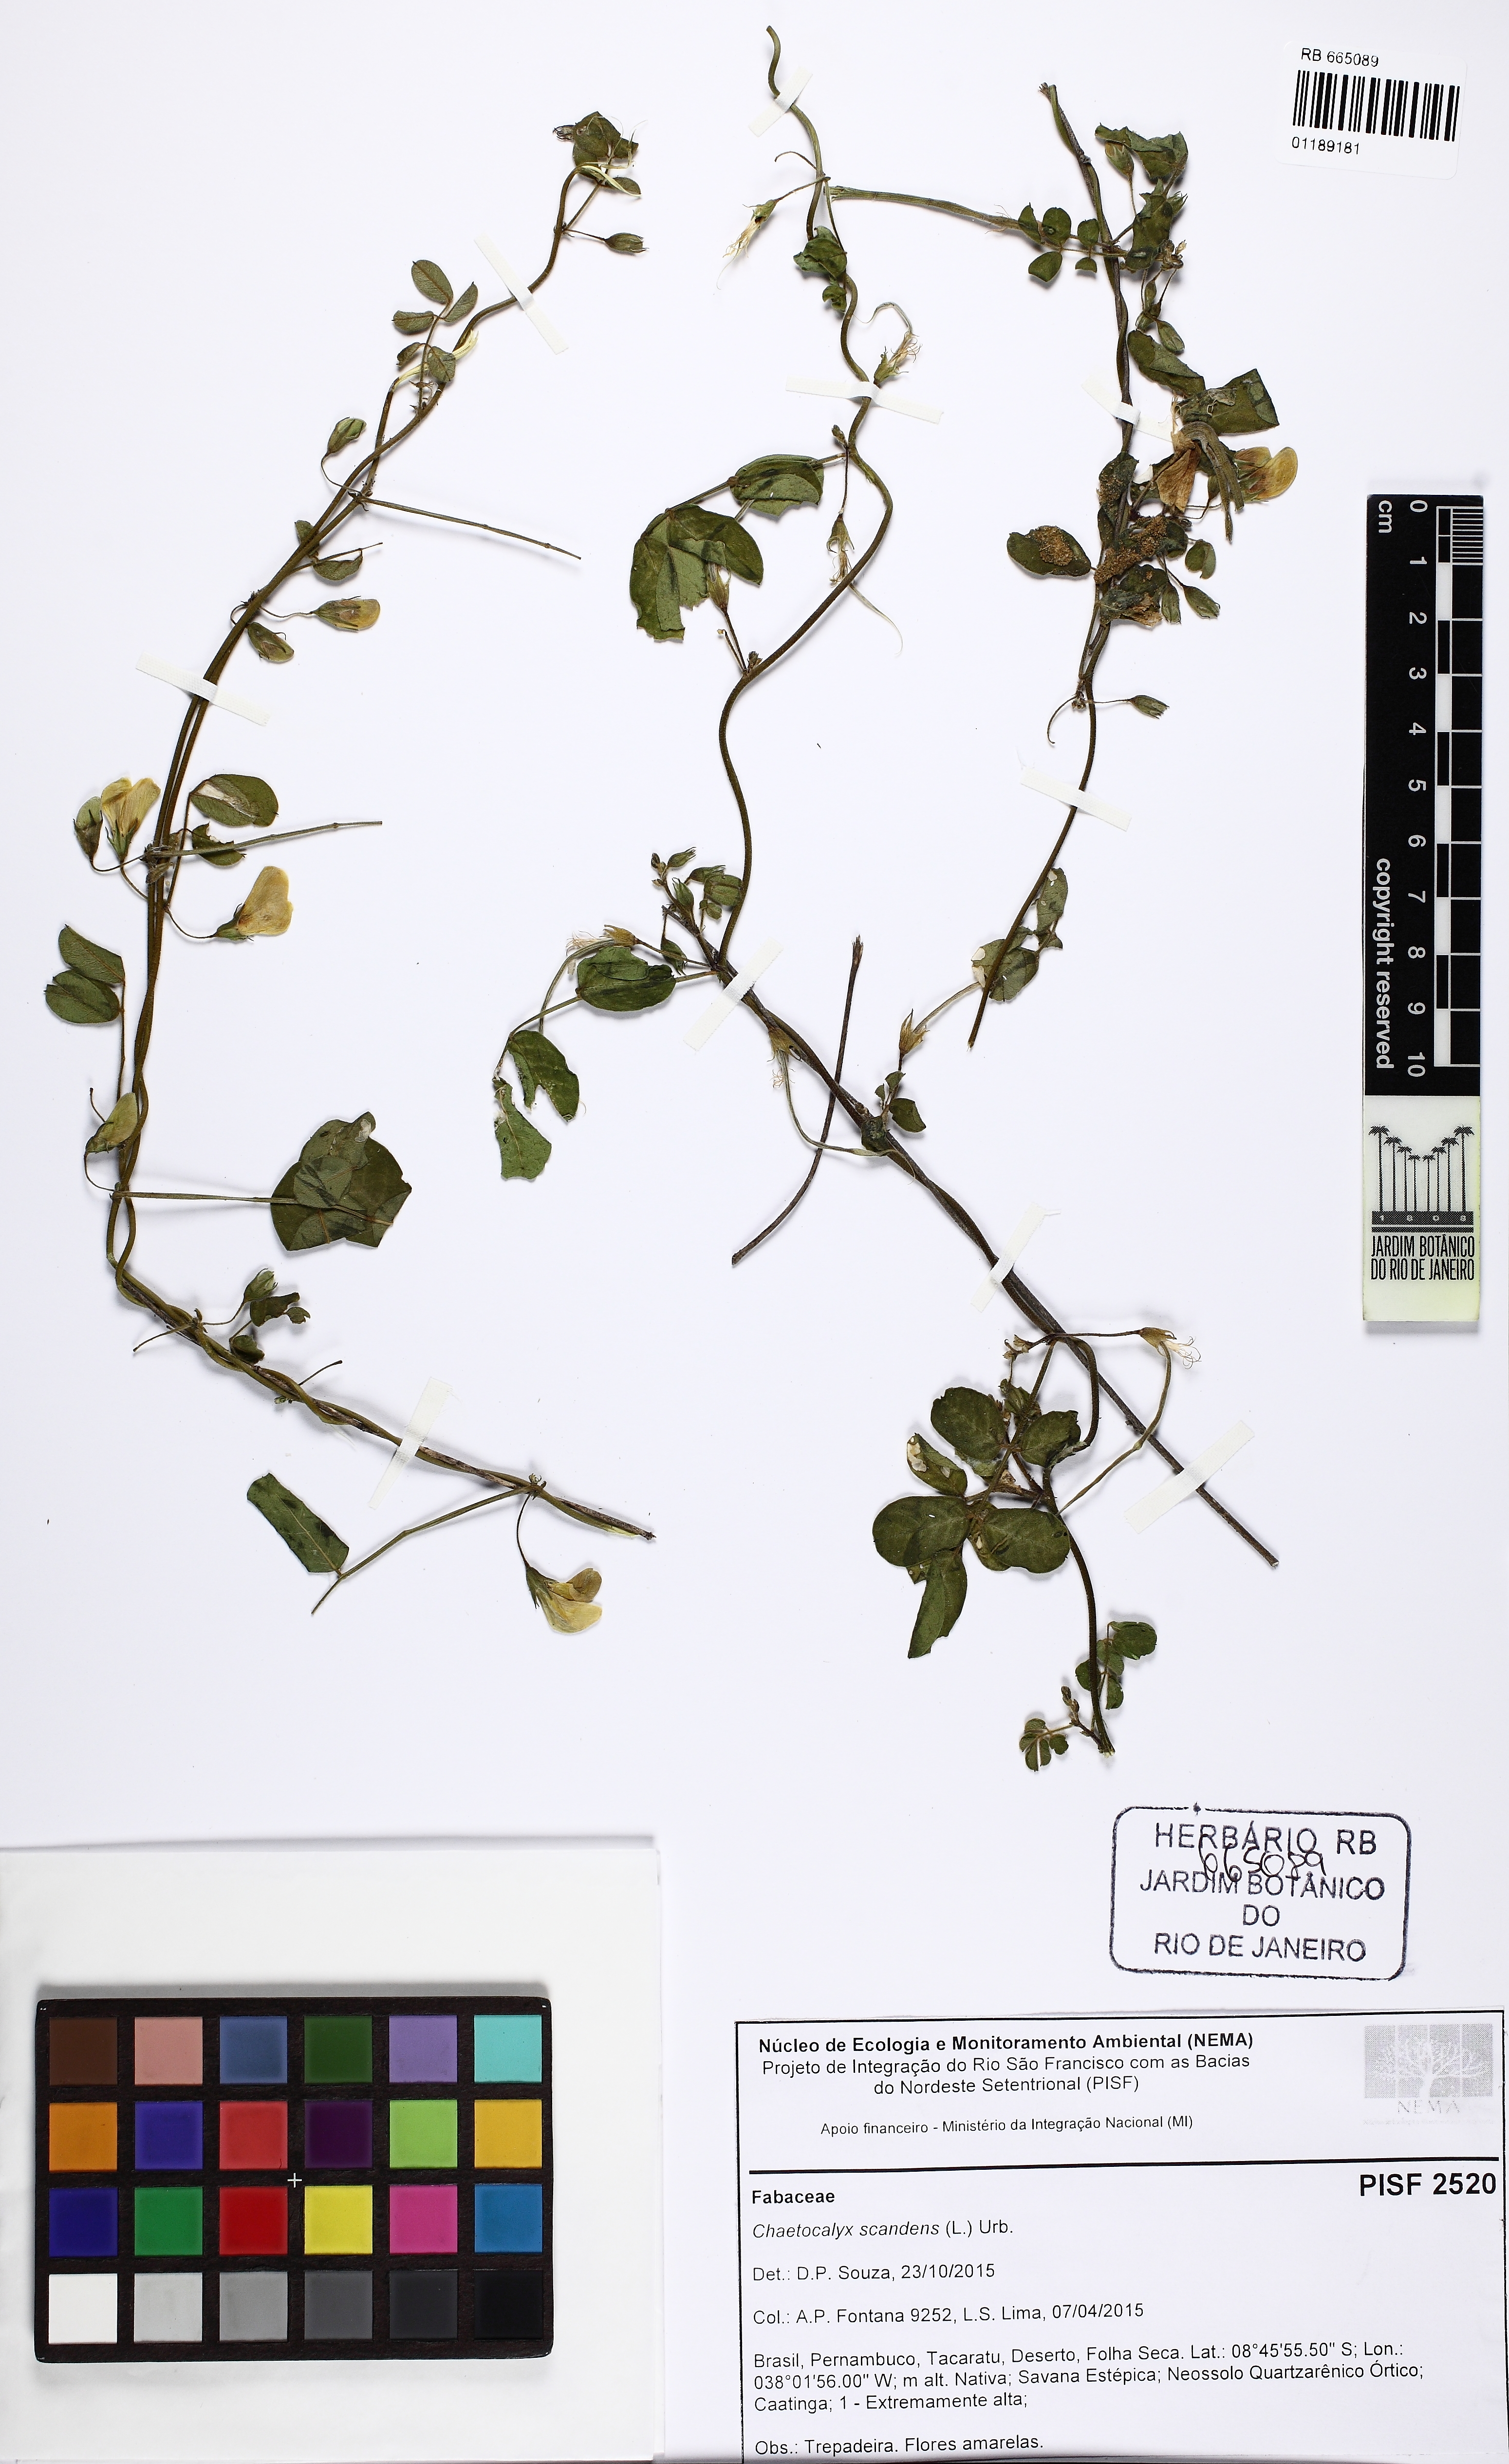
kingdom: Plantae
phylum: Tracheophyta
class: Magnoliopsida
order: Fabales
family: Fabaceae
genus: Nissolia
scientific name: Nissolia vincentina
